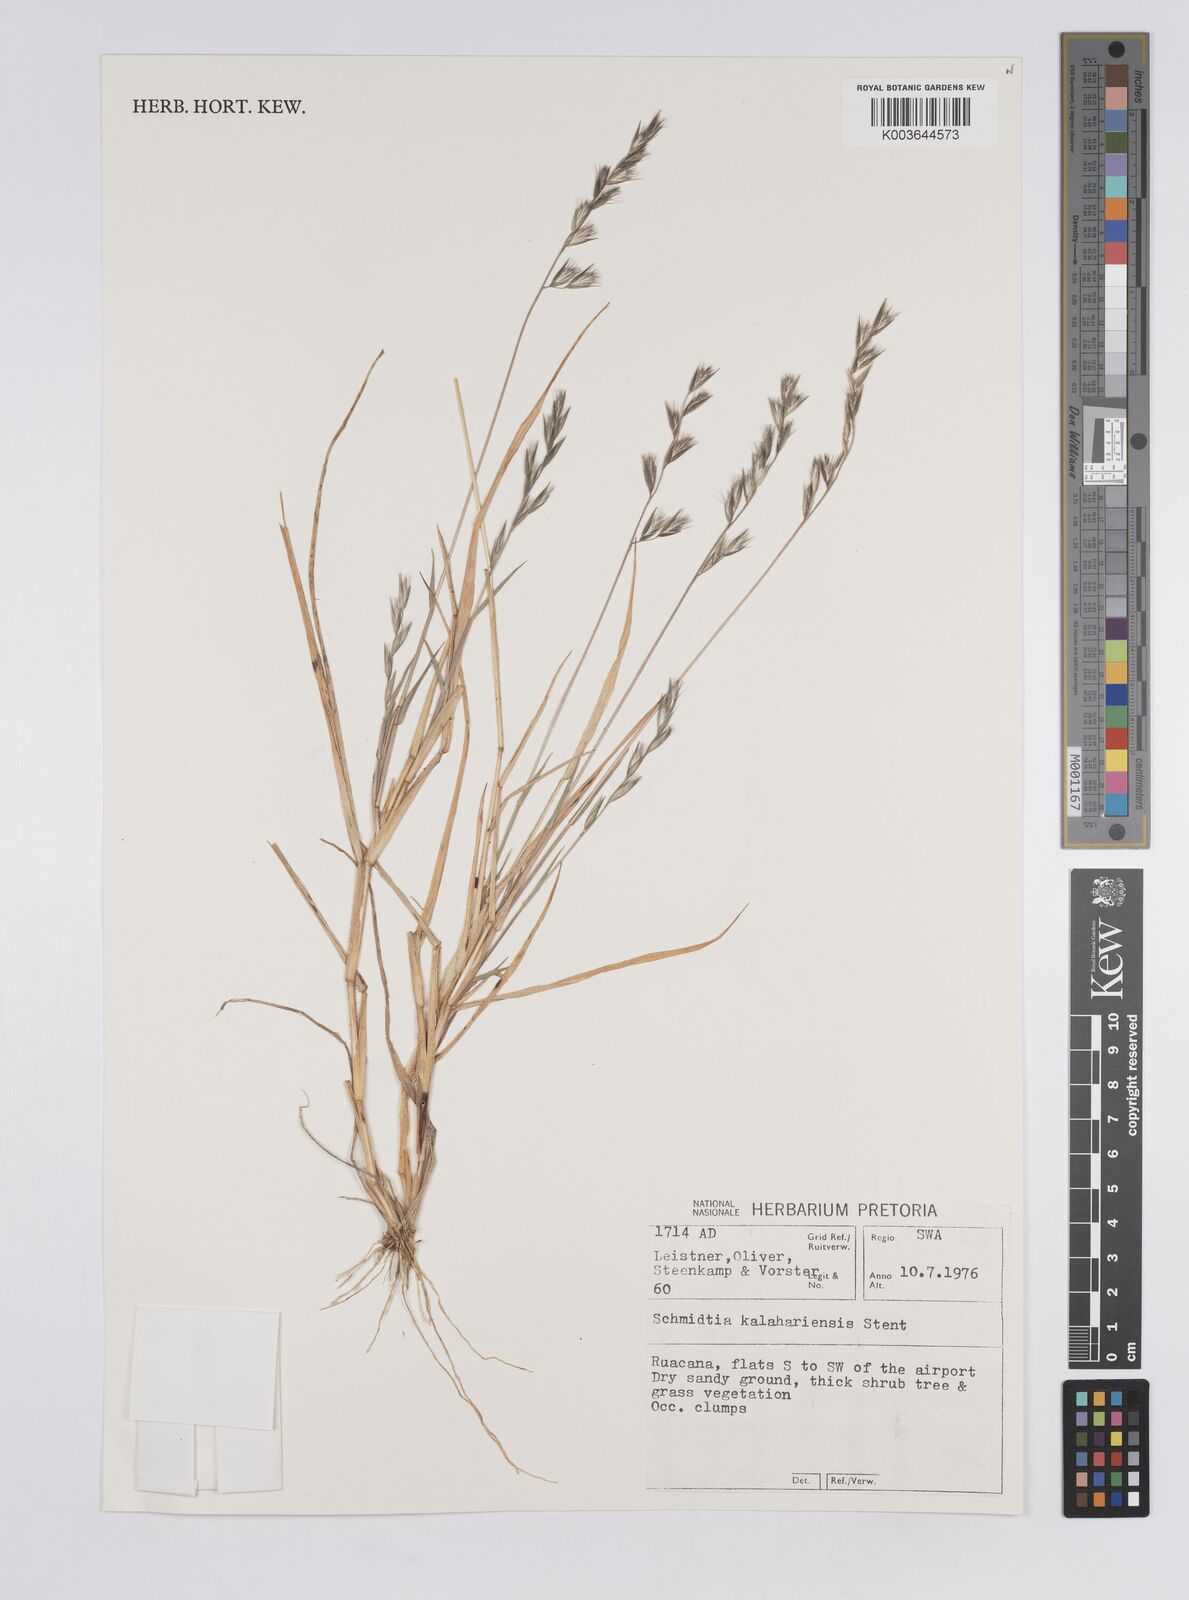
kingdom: Plantae
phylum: Tracheophyta
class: Liliopsida
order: Poales
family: Poaceae
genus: Schmidtia
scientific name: Schmidtia kalahariensis
